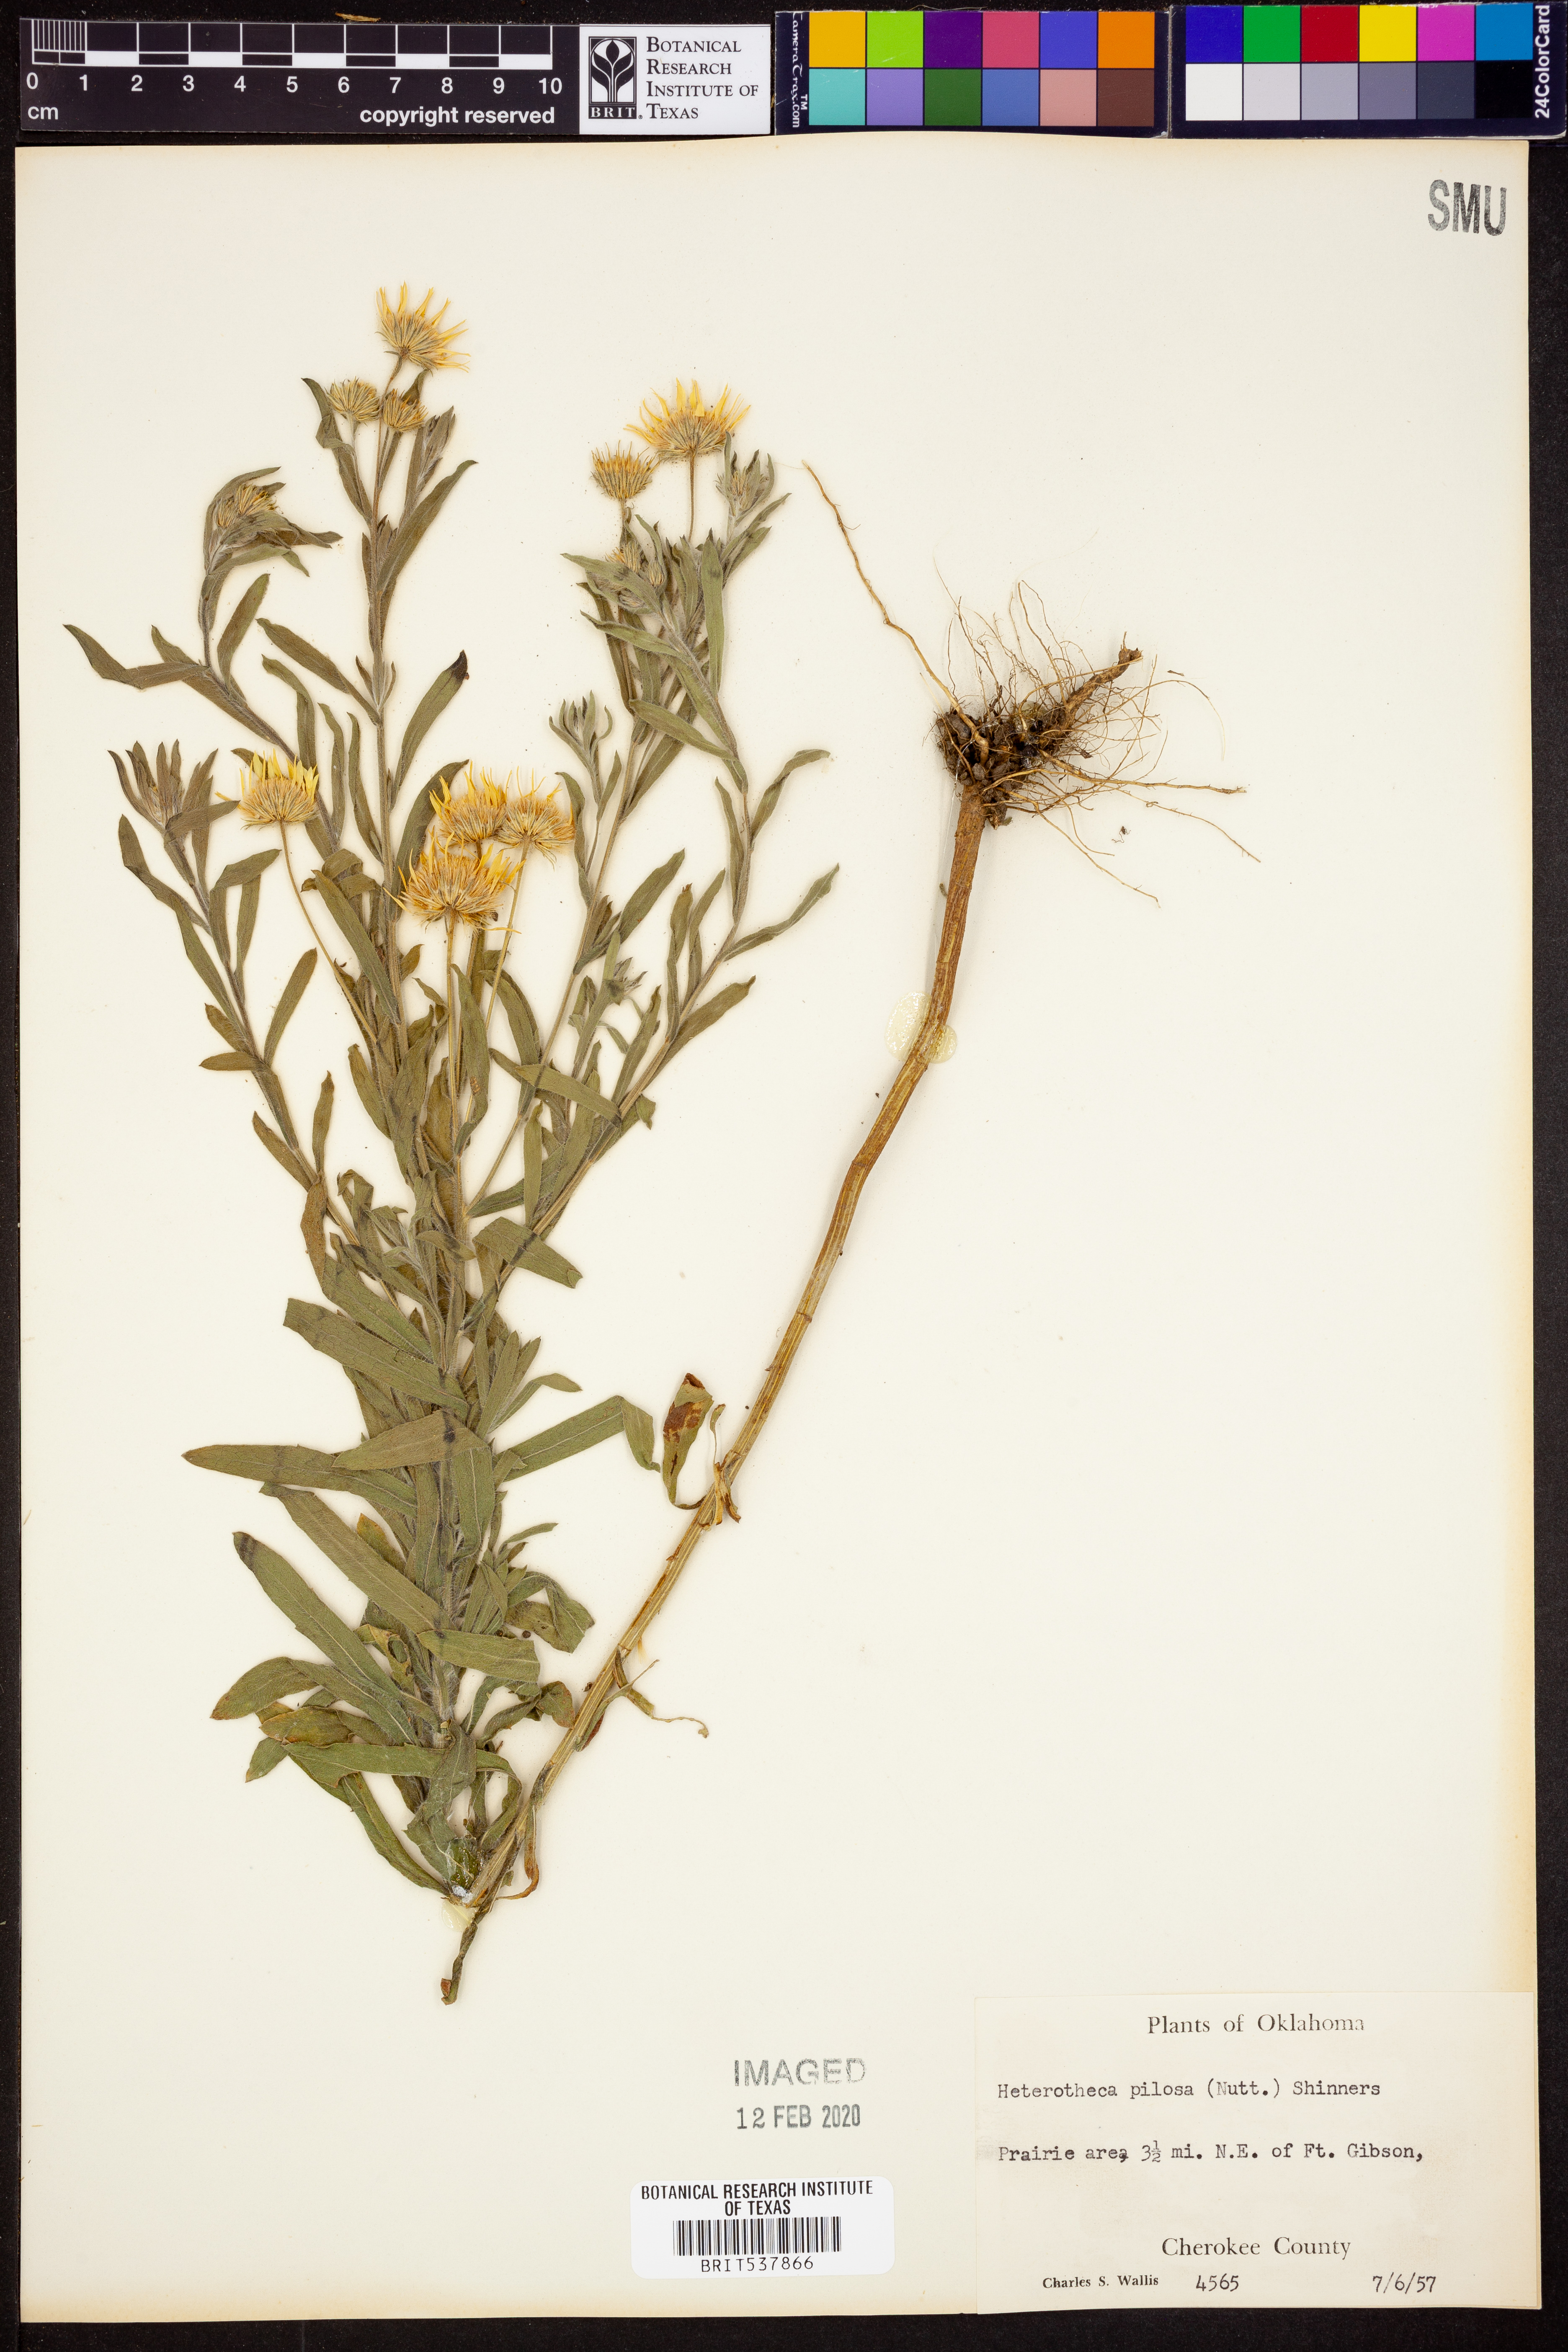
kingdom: Plantae
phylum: Tracheophyta
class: Magnoliopsida
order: Asterales
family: Asteraceae
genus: Bradburia
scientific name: Bradburia pilosa
